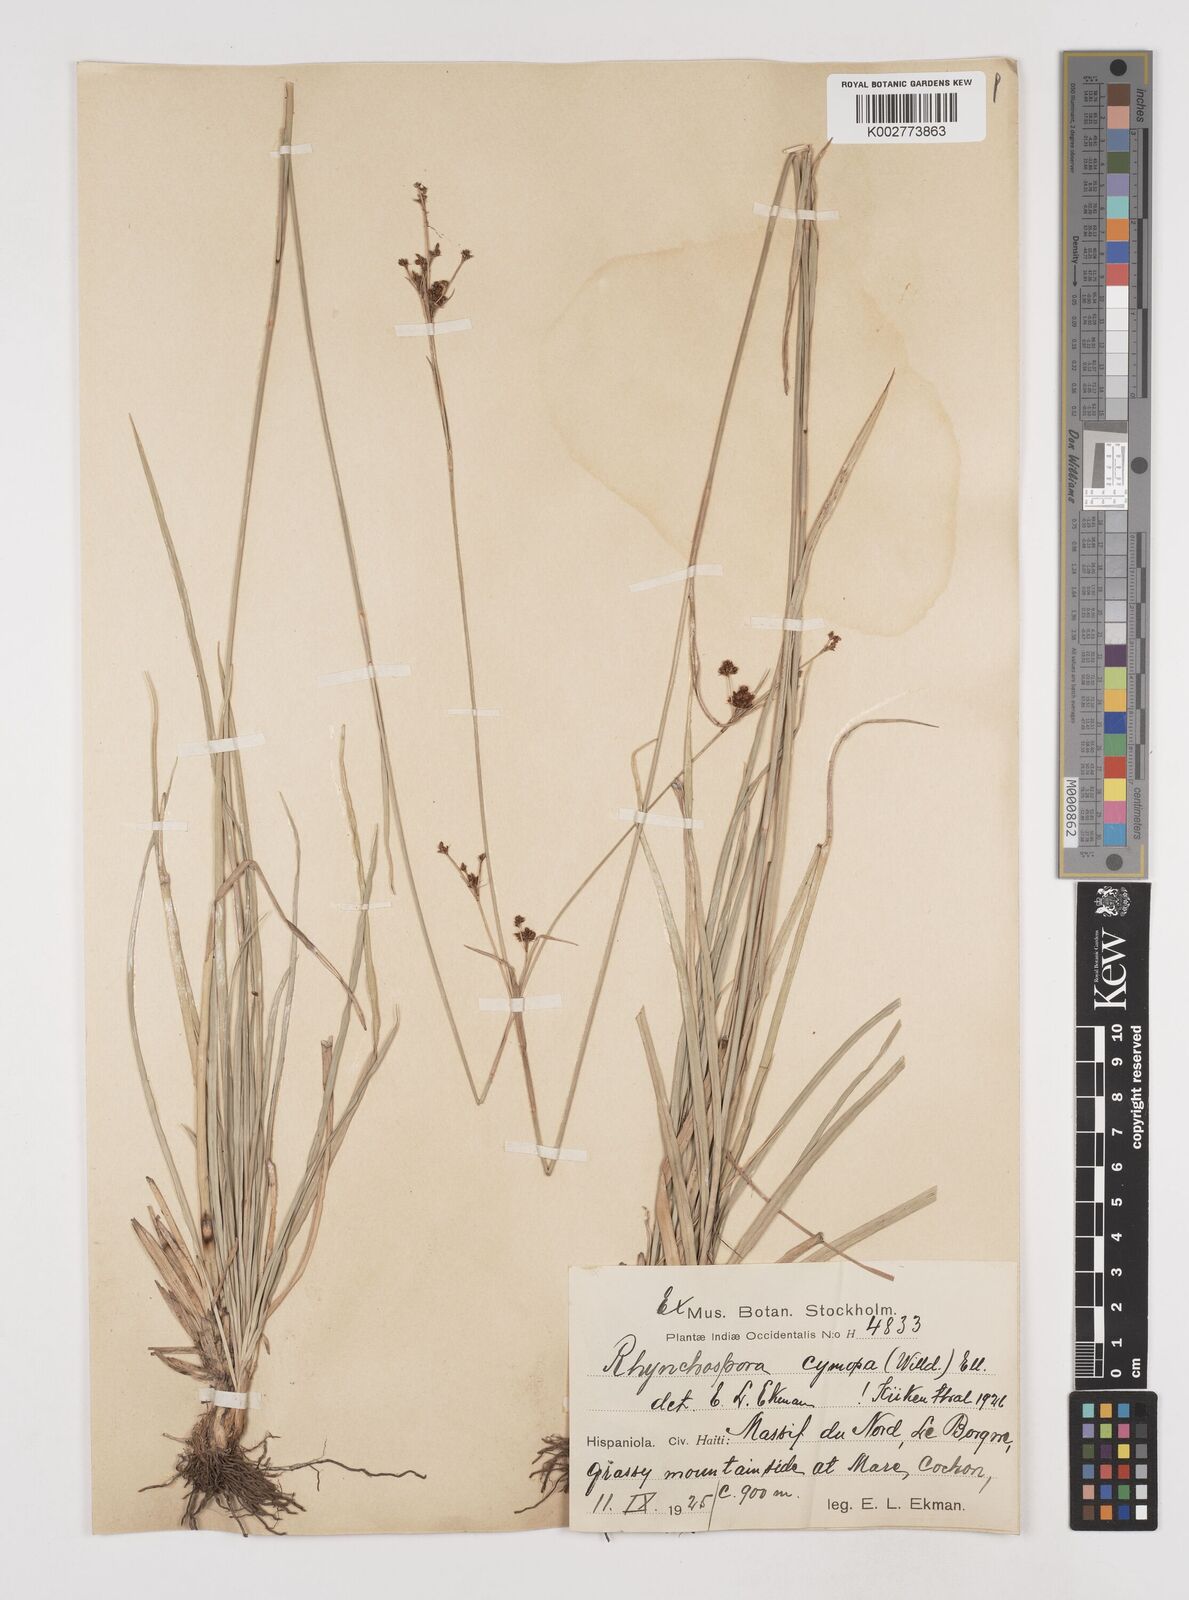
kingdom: Plantae
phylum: Tracheophyta
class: Liliopsida
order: Poales
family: Cyperaceae
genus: Scirpus
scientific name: Scirpus polyphyllus
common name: Leafy bulrush
